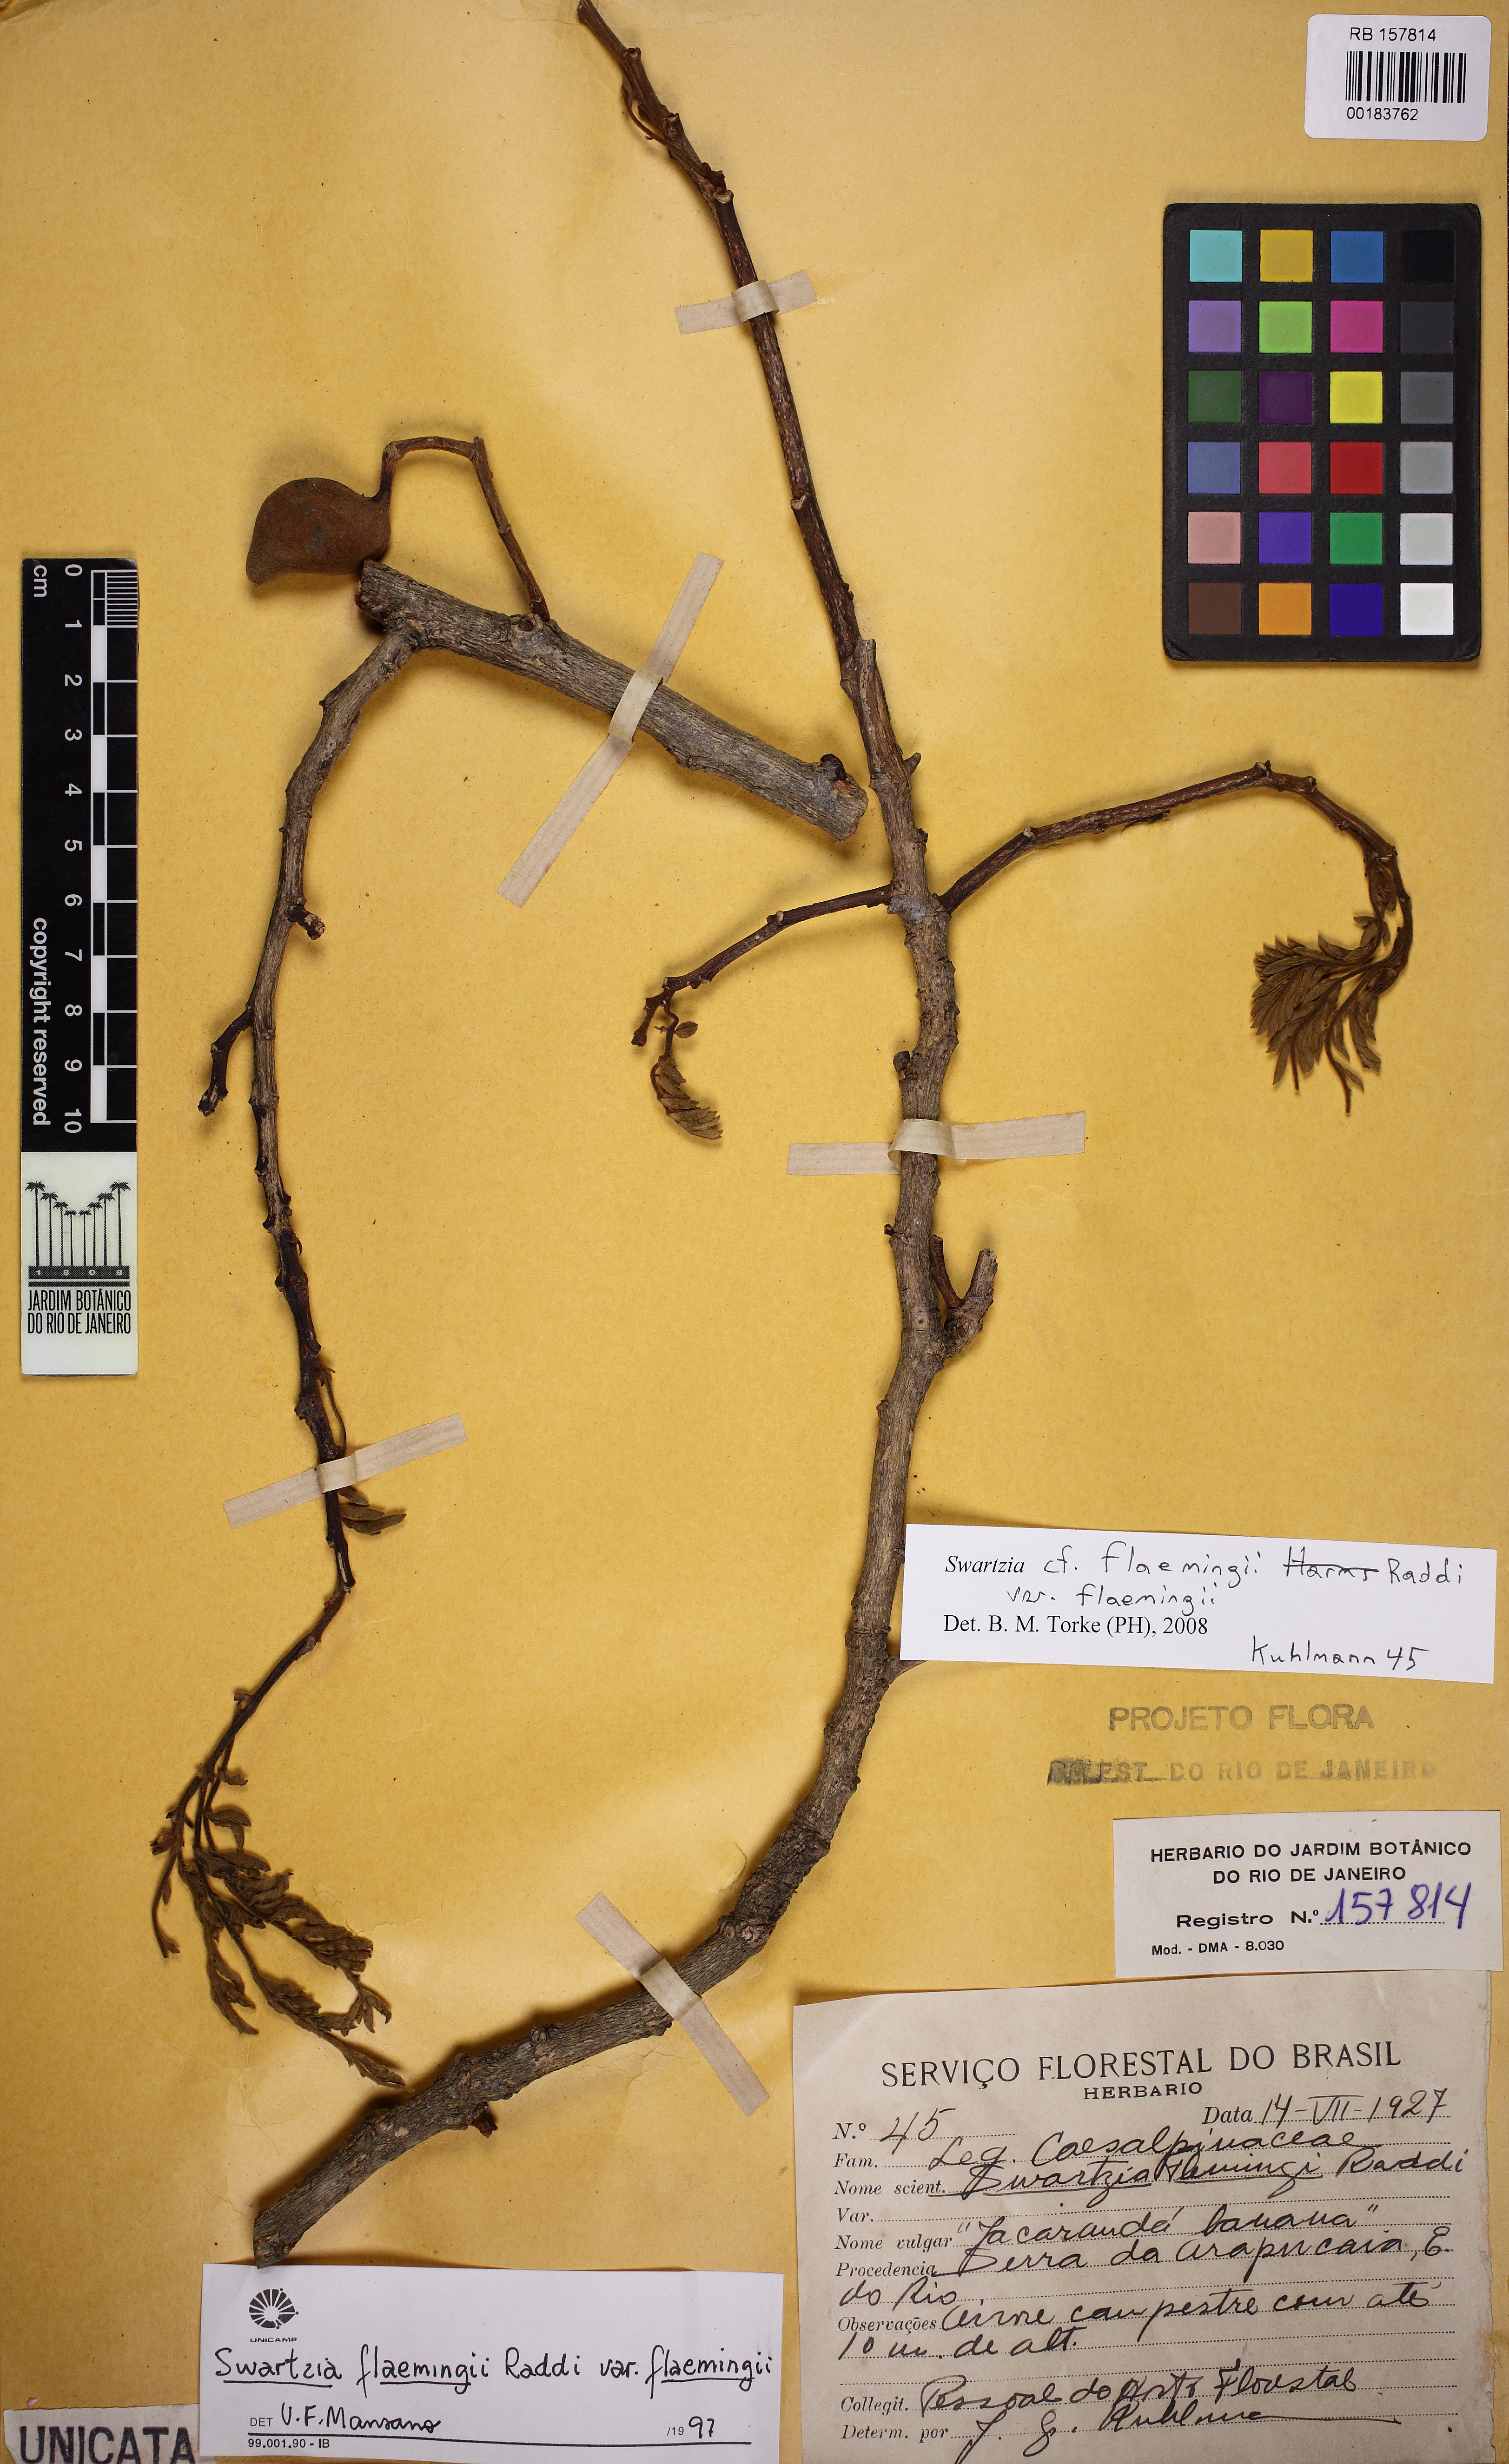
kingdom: Plantae
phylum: Tracheophyta
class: Magnoliopsida
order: Fabales
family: Fabaceae
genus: Swartzia
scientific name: Swartzia flaemingii
